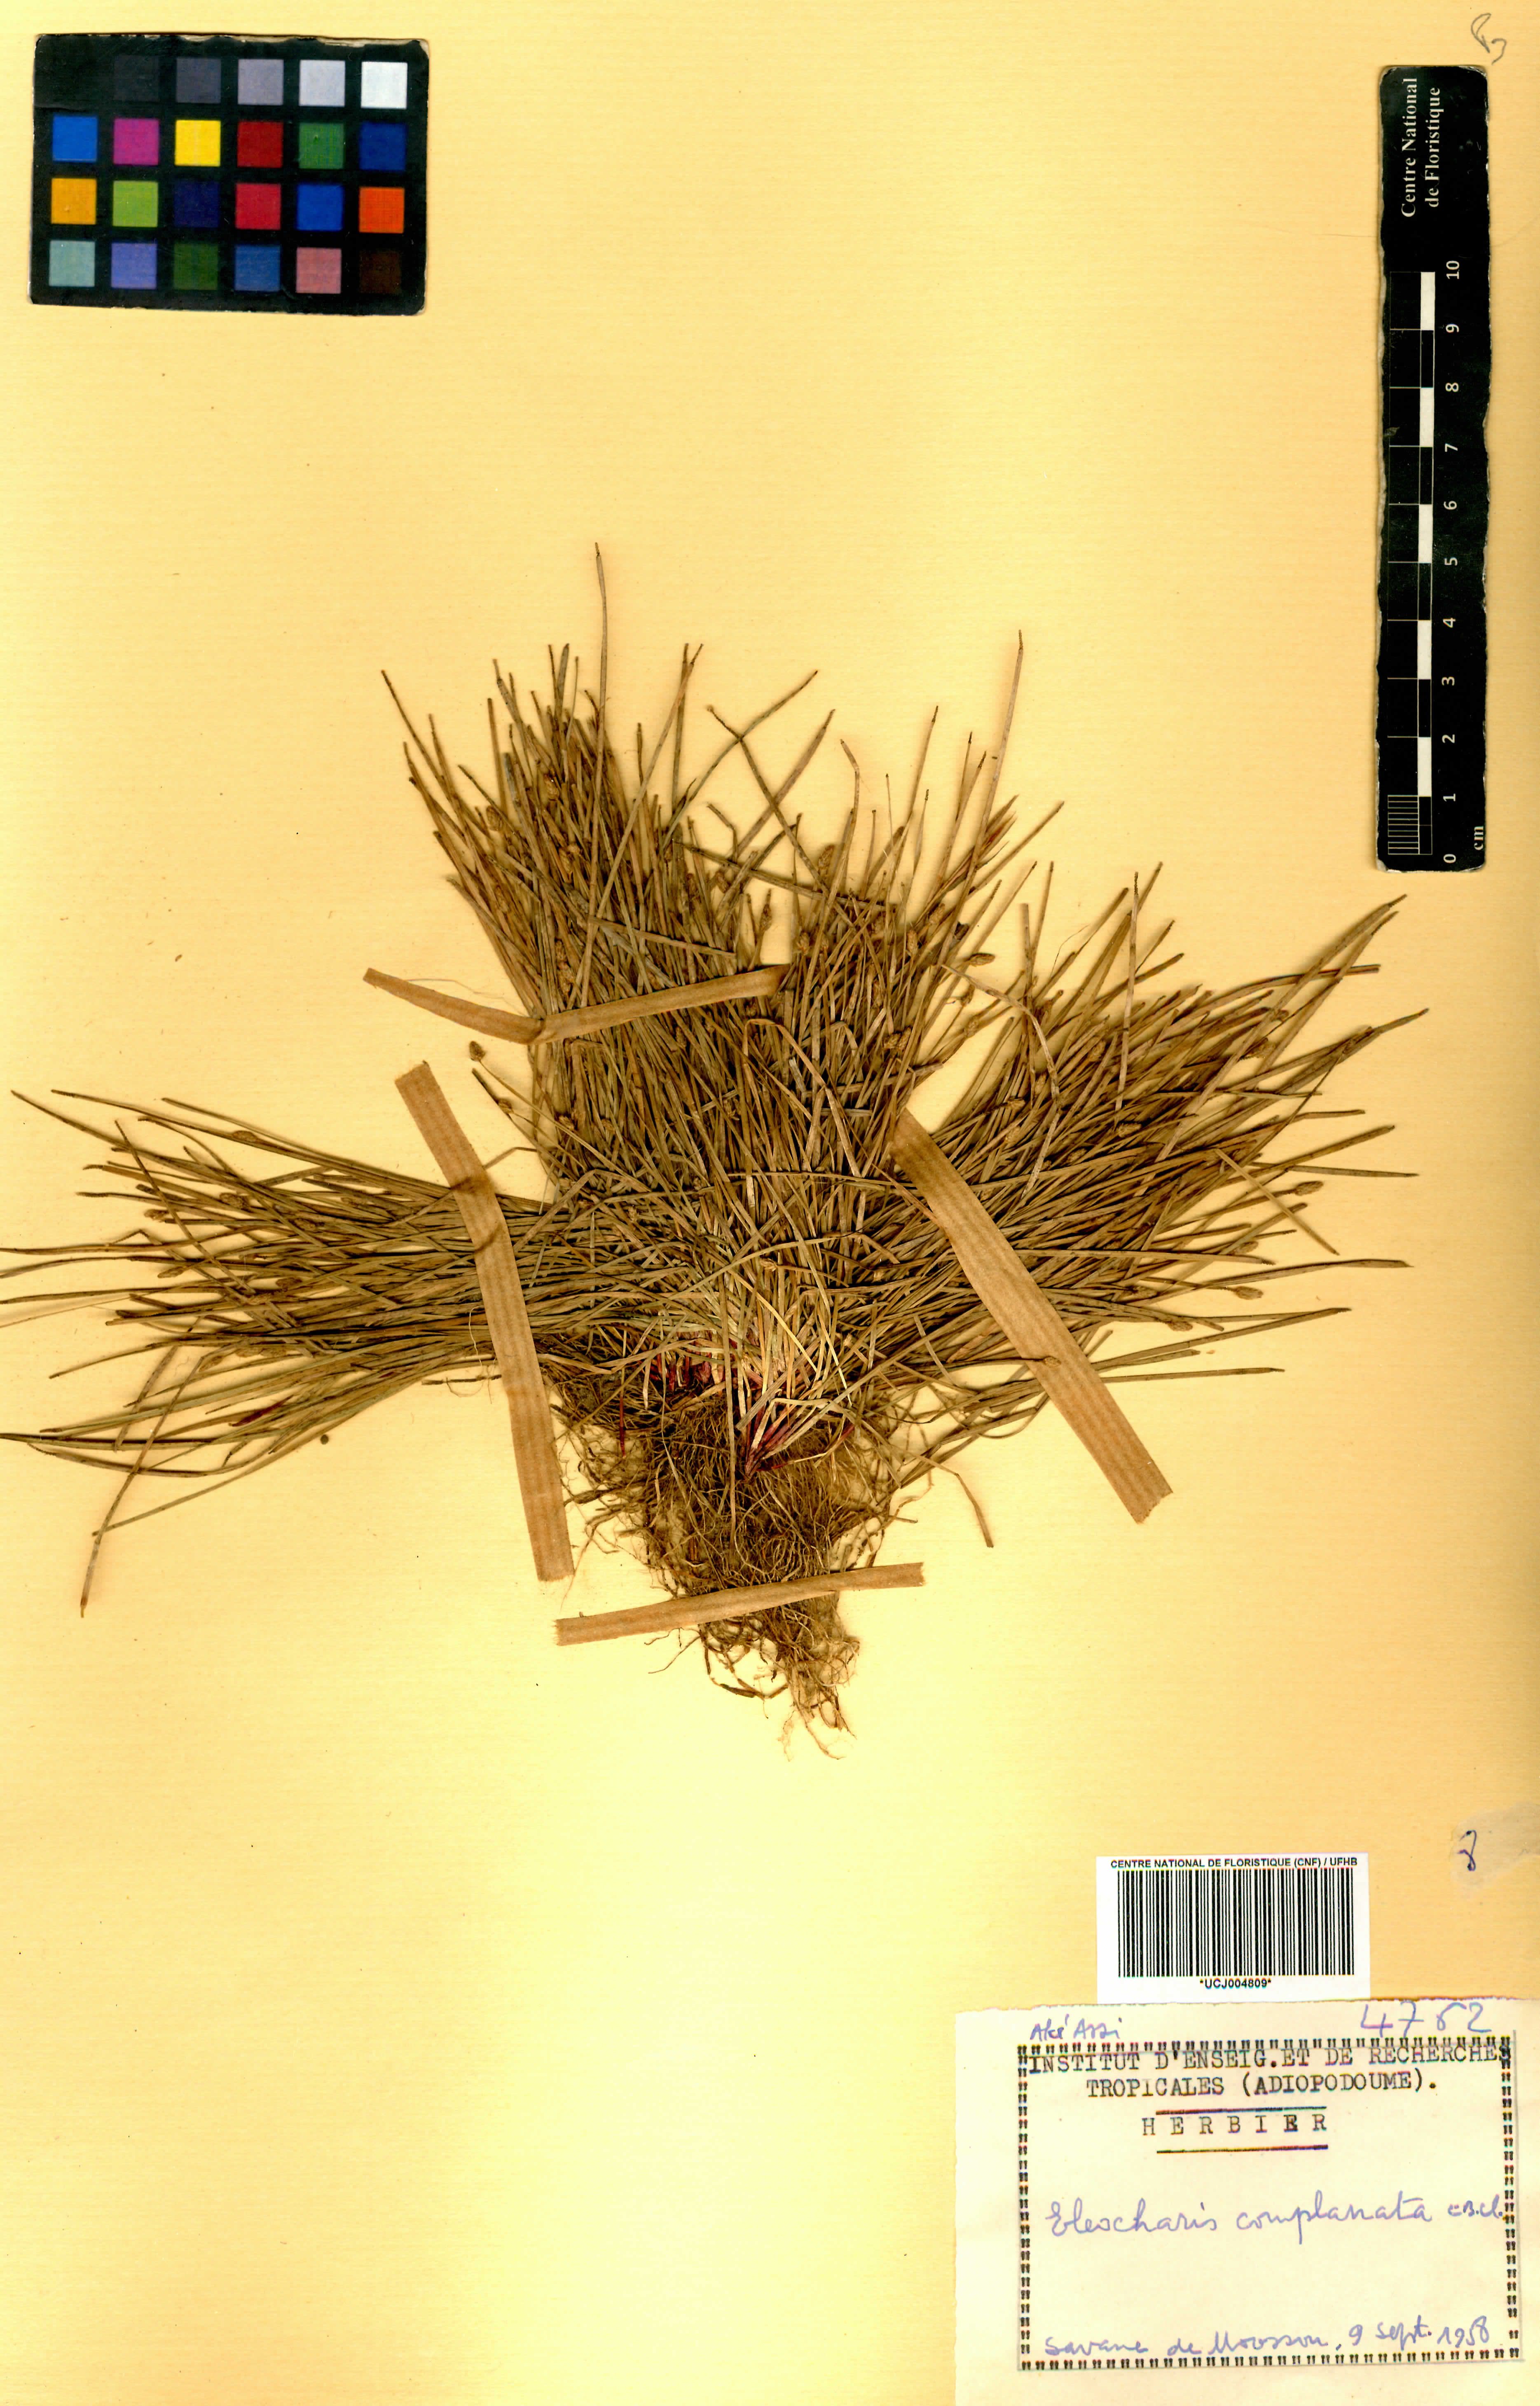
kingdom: Plantae
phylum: Tracheophyta
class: Liliopsida
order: Poales
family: Cyperaceae
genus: Eleocharis
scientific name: Eleocharis complanata
